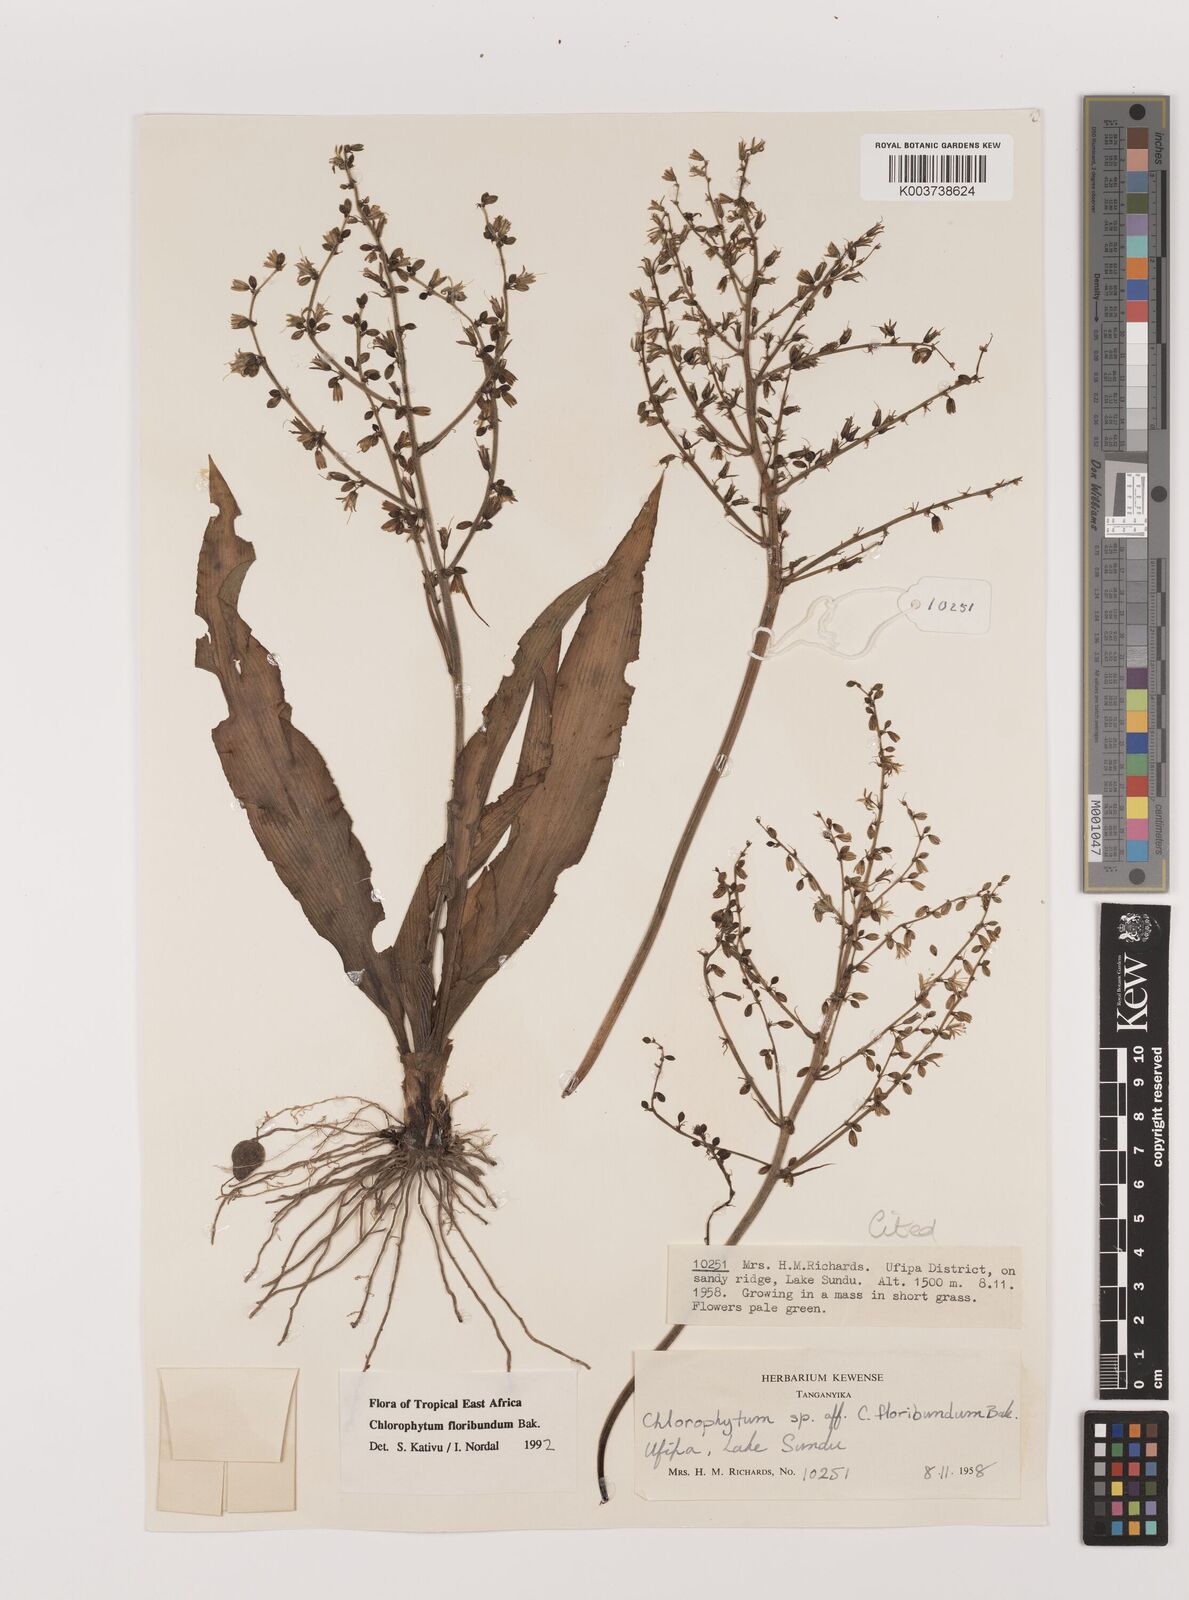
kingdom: Plantae
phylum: Tracheophyta
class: Liliopsida
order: Asparagales
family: Asparagaceae
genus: Chlorophytum
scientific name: Chlorophytum gallabatense
